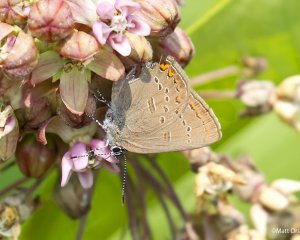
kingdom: Animalia
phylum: Arthropoda
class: Insecta
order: Lepidoptera
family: Lycaenidae
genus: Satyrium
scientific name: Satyrium edwardsii
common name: Edwards' Hairstreak
